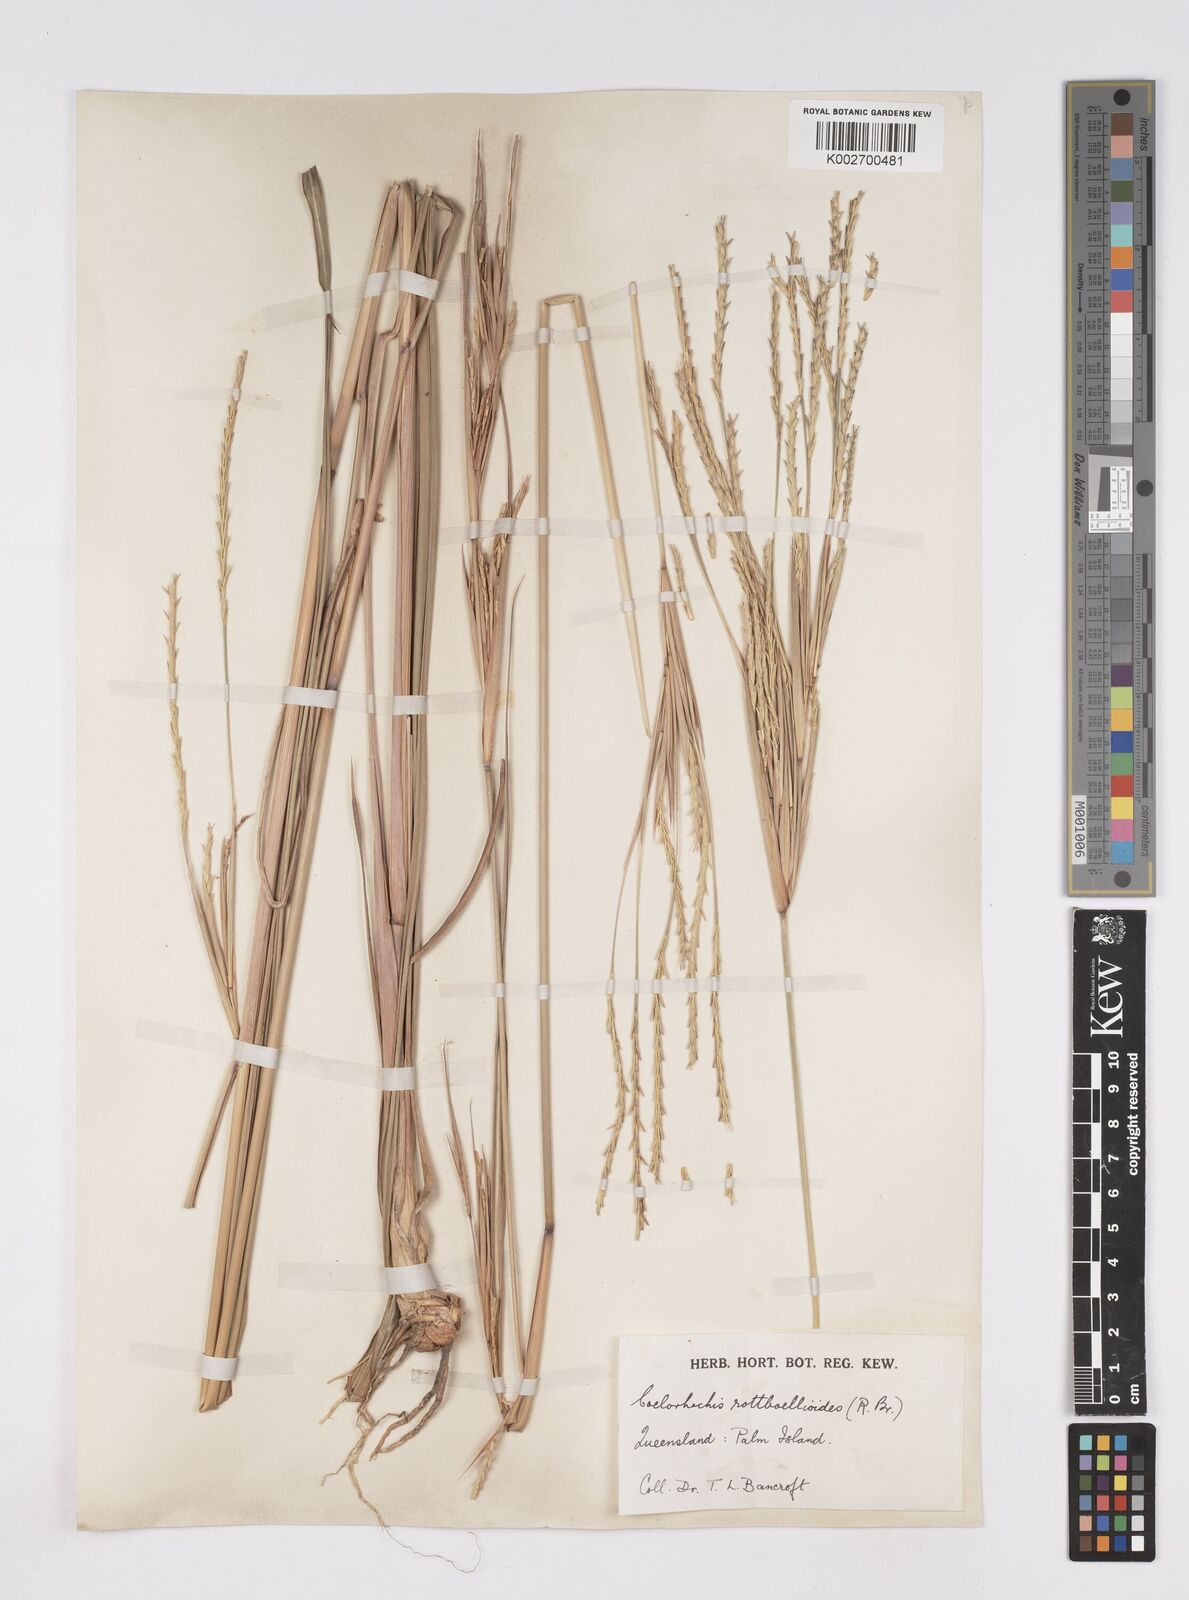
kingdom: Plantae
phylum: Tracheophyta
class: Liliopsida
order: Poales
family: Poaceae
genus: Rottboellia
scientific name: Rottboellia rottboellioides
